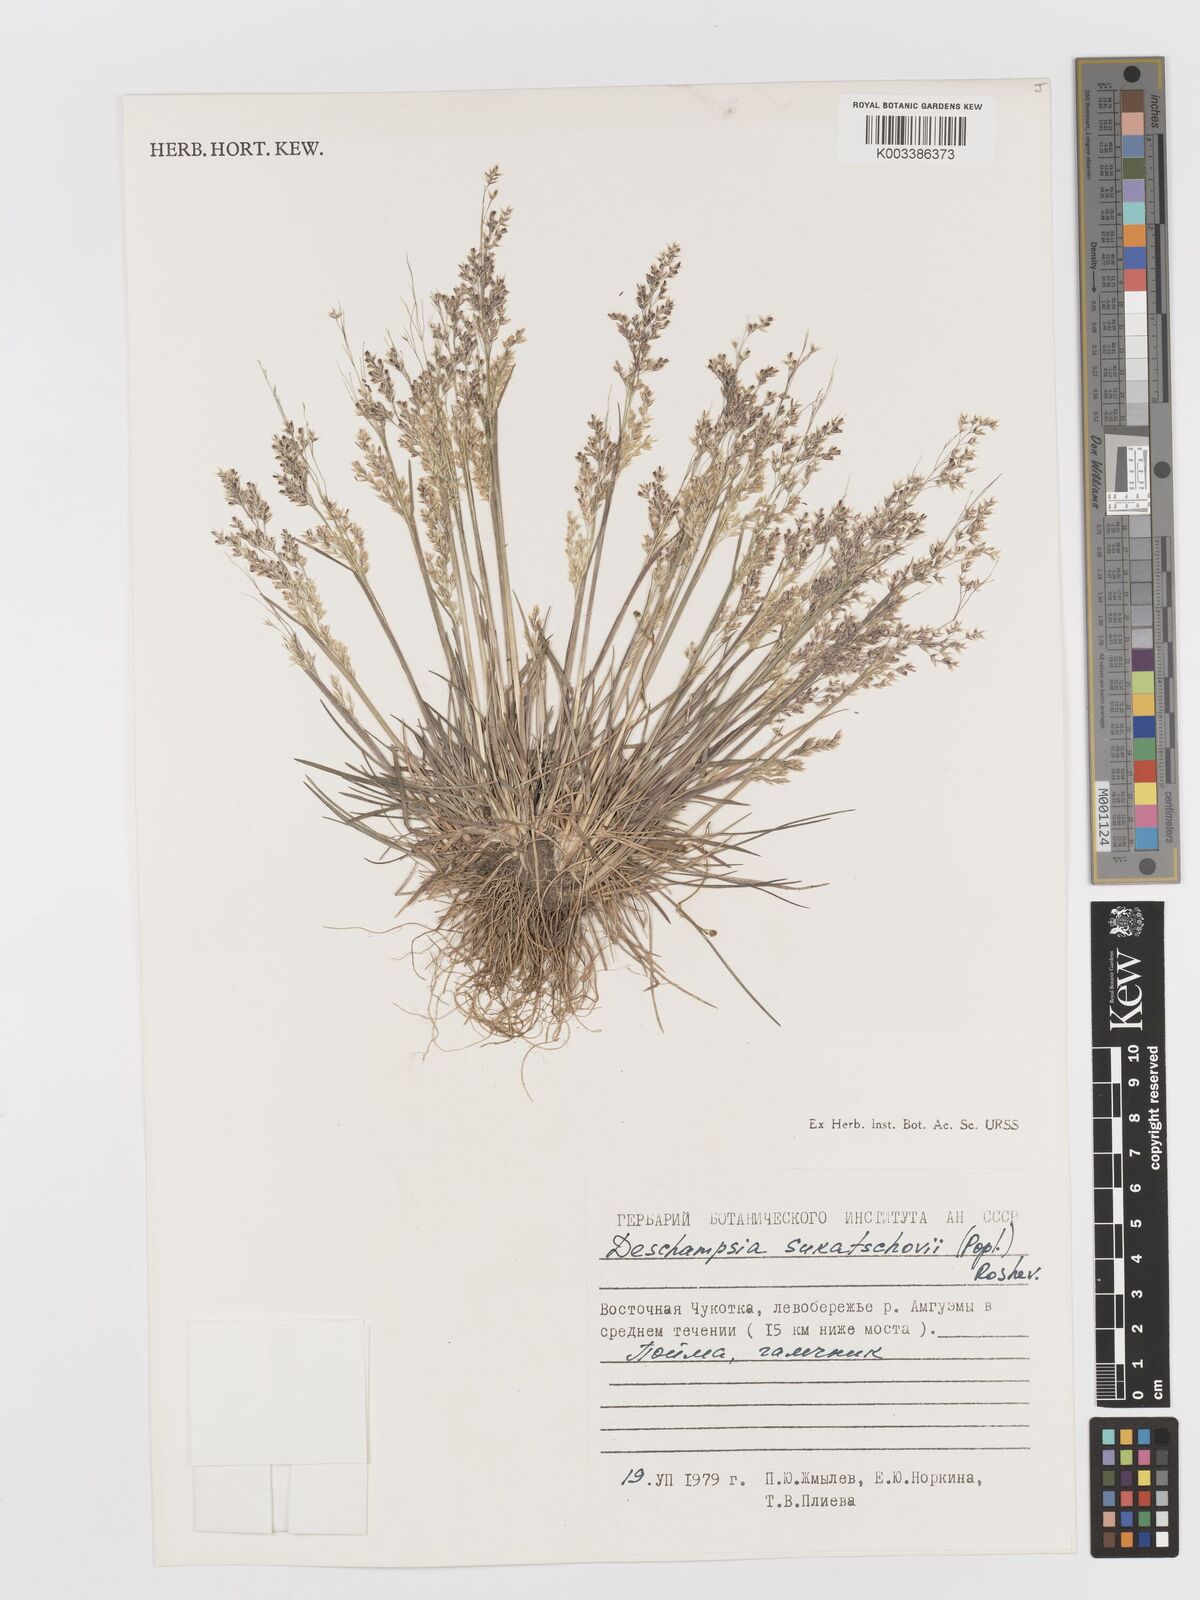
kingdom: Plantae
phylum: Tracheophyta
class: Liliopsida
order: Poales
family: Poaceae
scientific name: Poaceae
